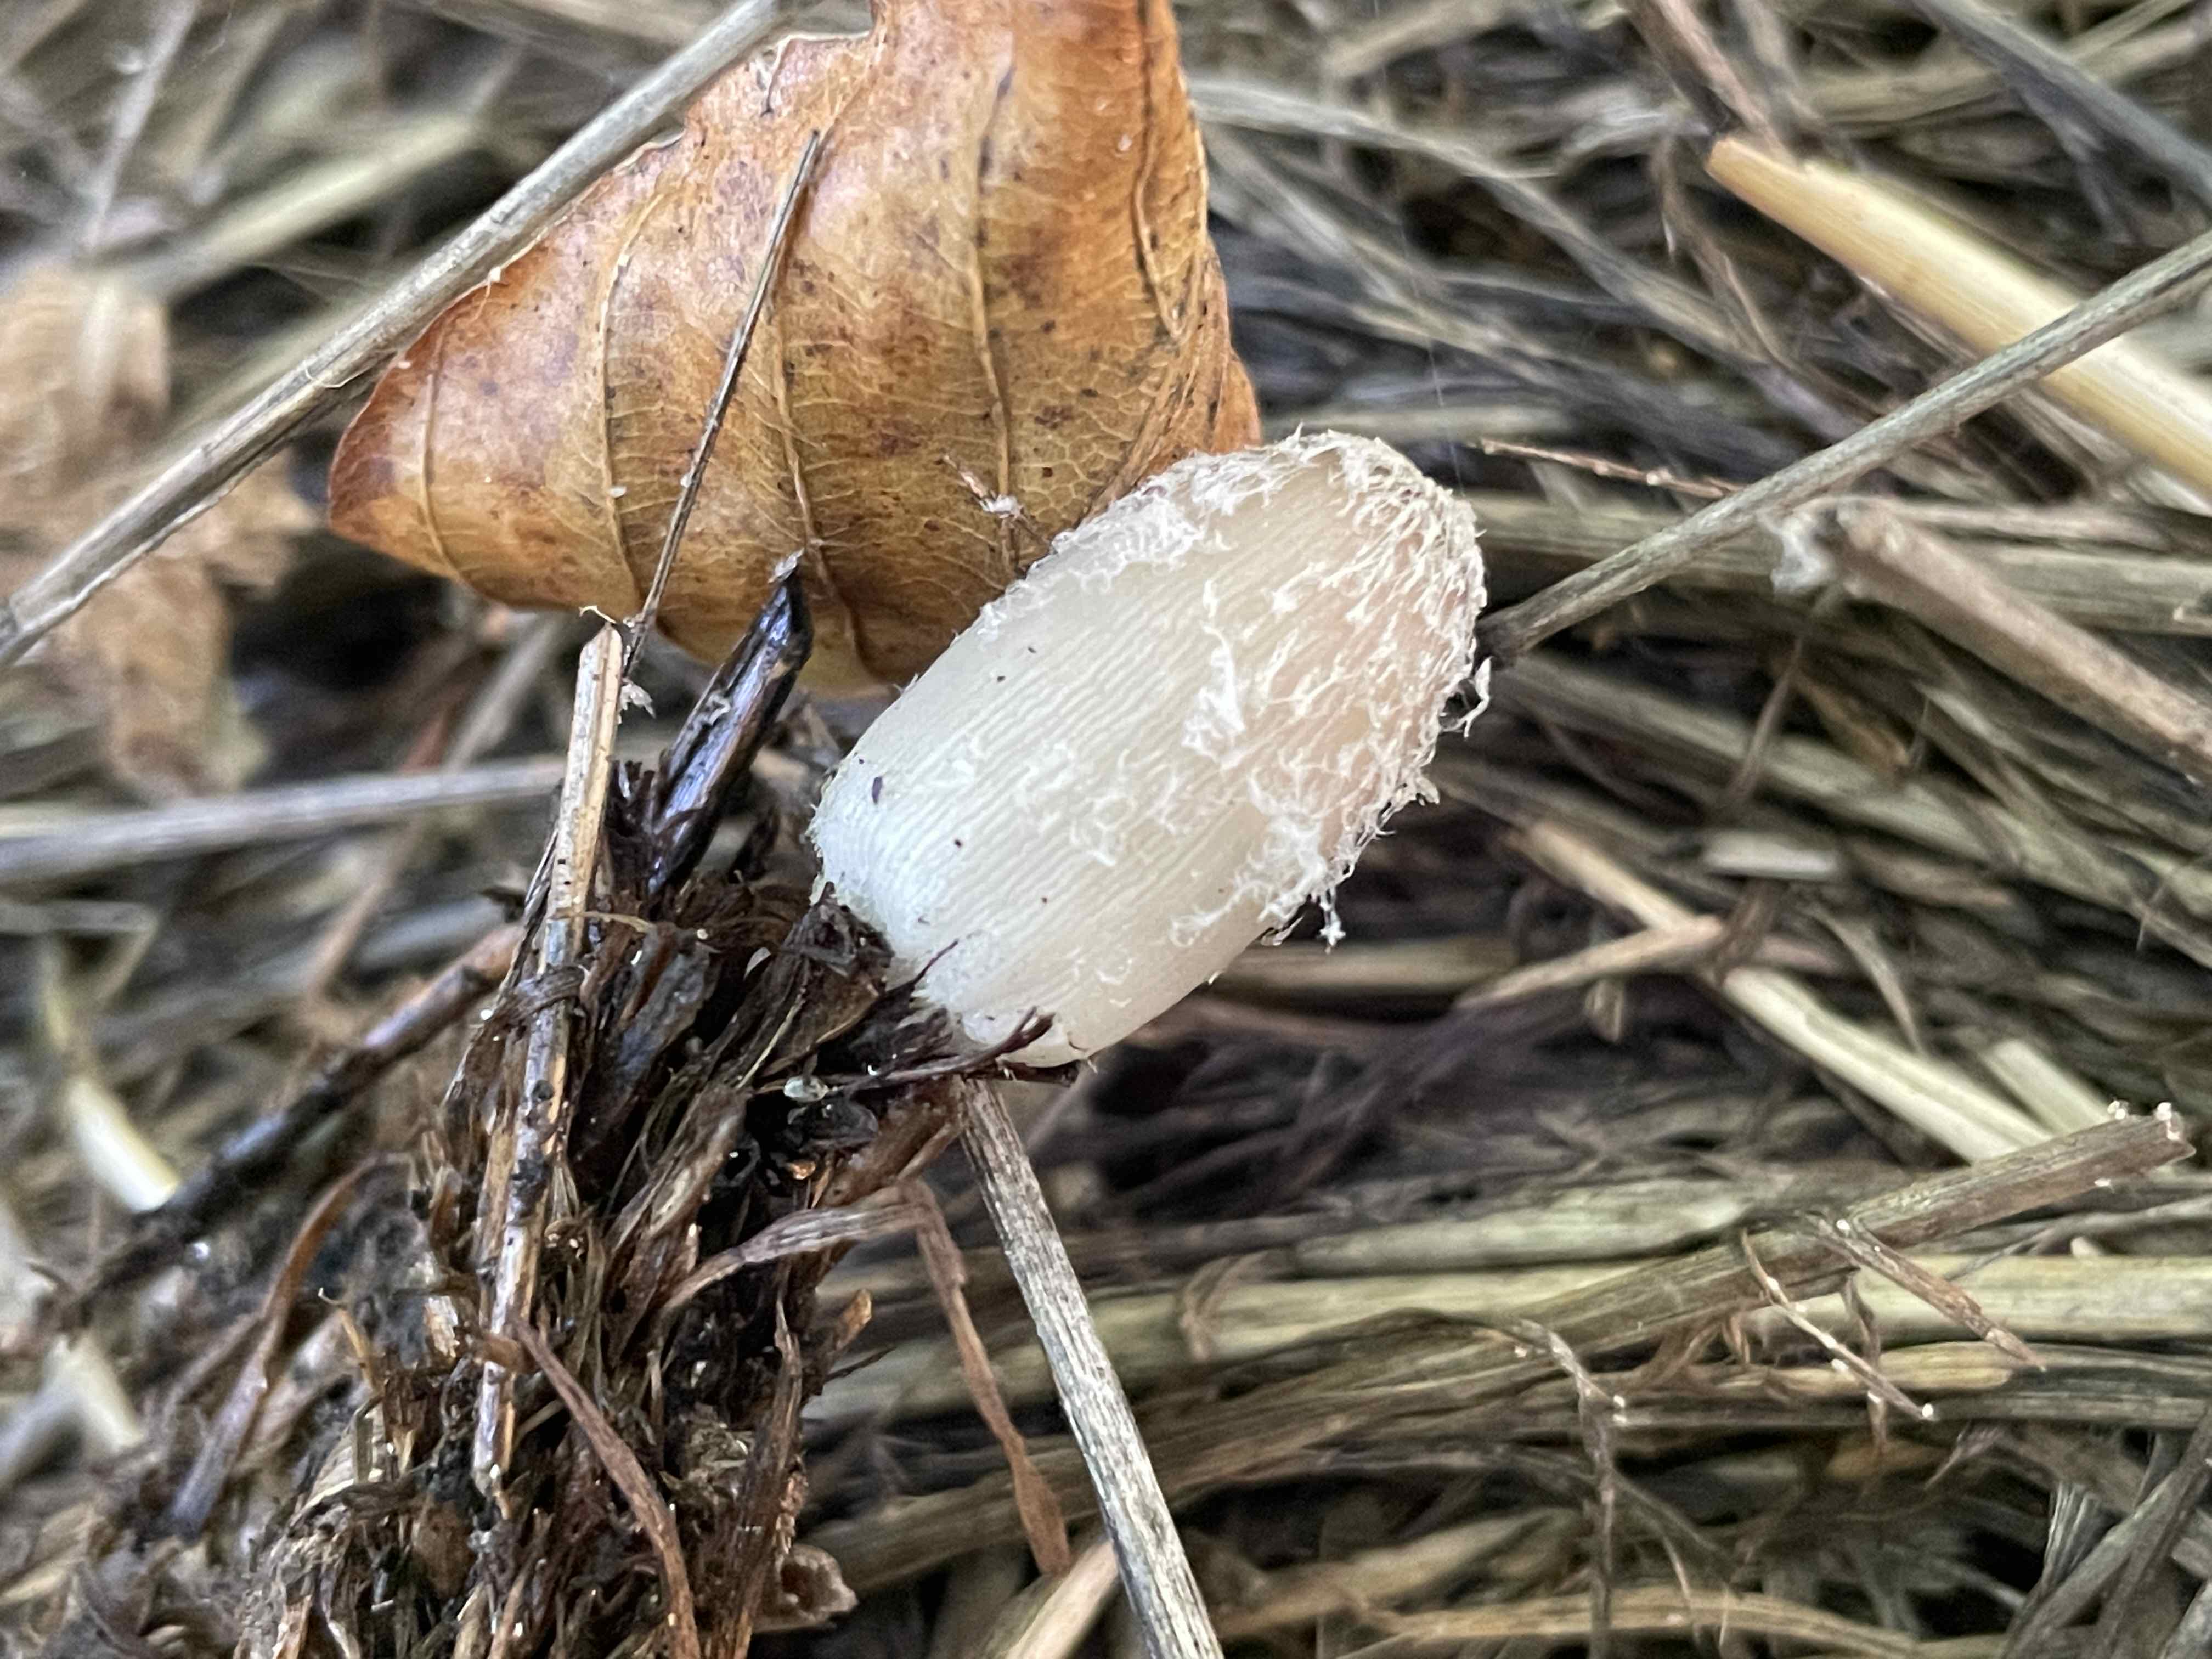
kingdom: Fungi
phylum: Basidiomycota
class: Agaricomycetes
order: Agaricales
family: Psathyrellaceae
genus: Coprinopsis
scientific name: Coprinopsis
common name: blækhat
